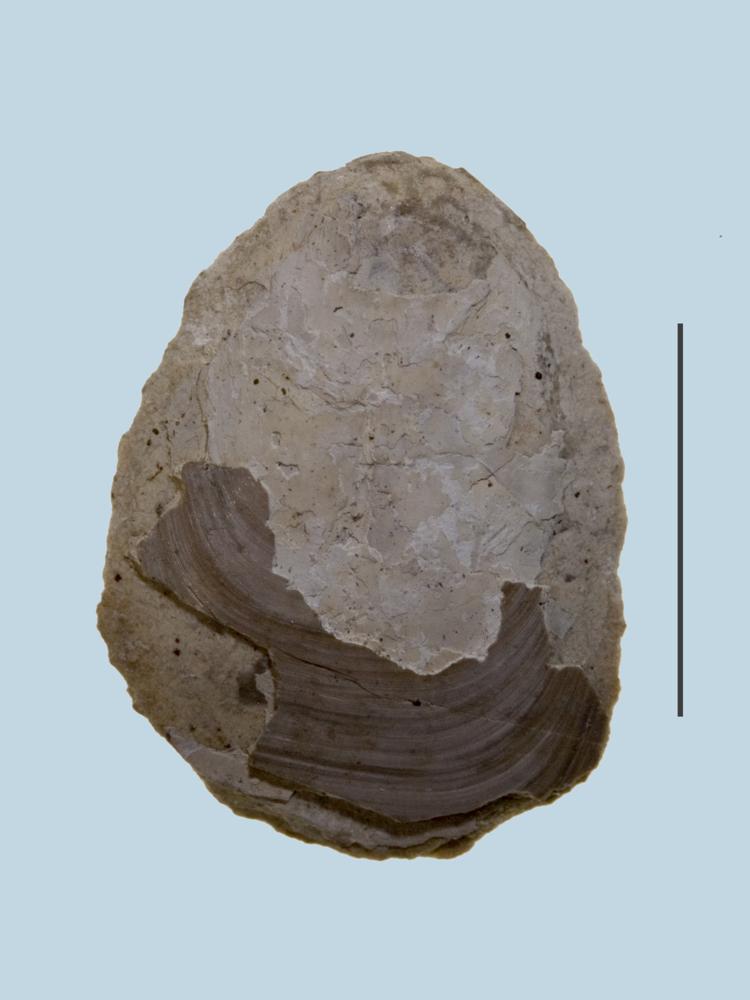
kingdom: Animalia
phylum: Brachiopoda
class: Lingulata
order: Lingulida
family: Lingulidae
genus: Lingula
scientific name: Lingula
